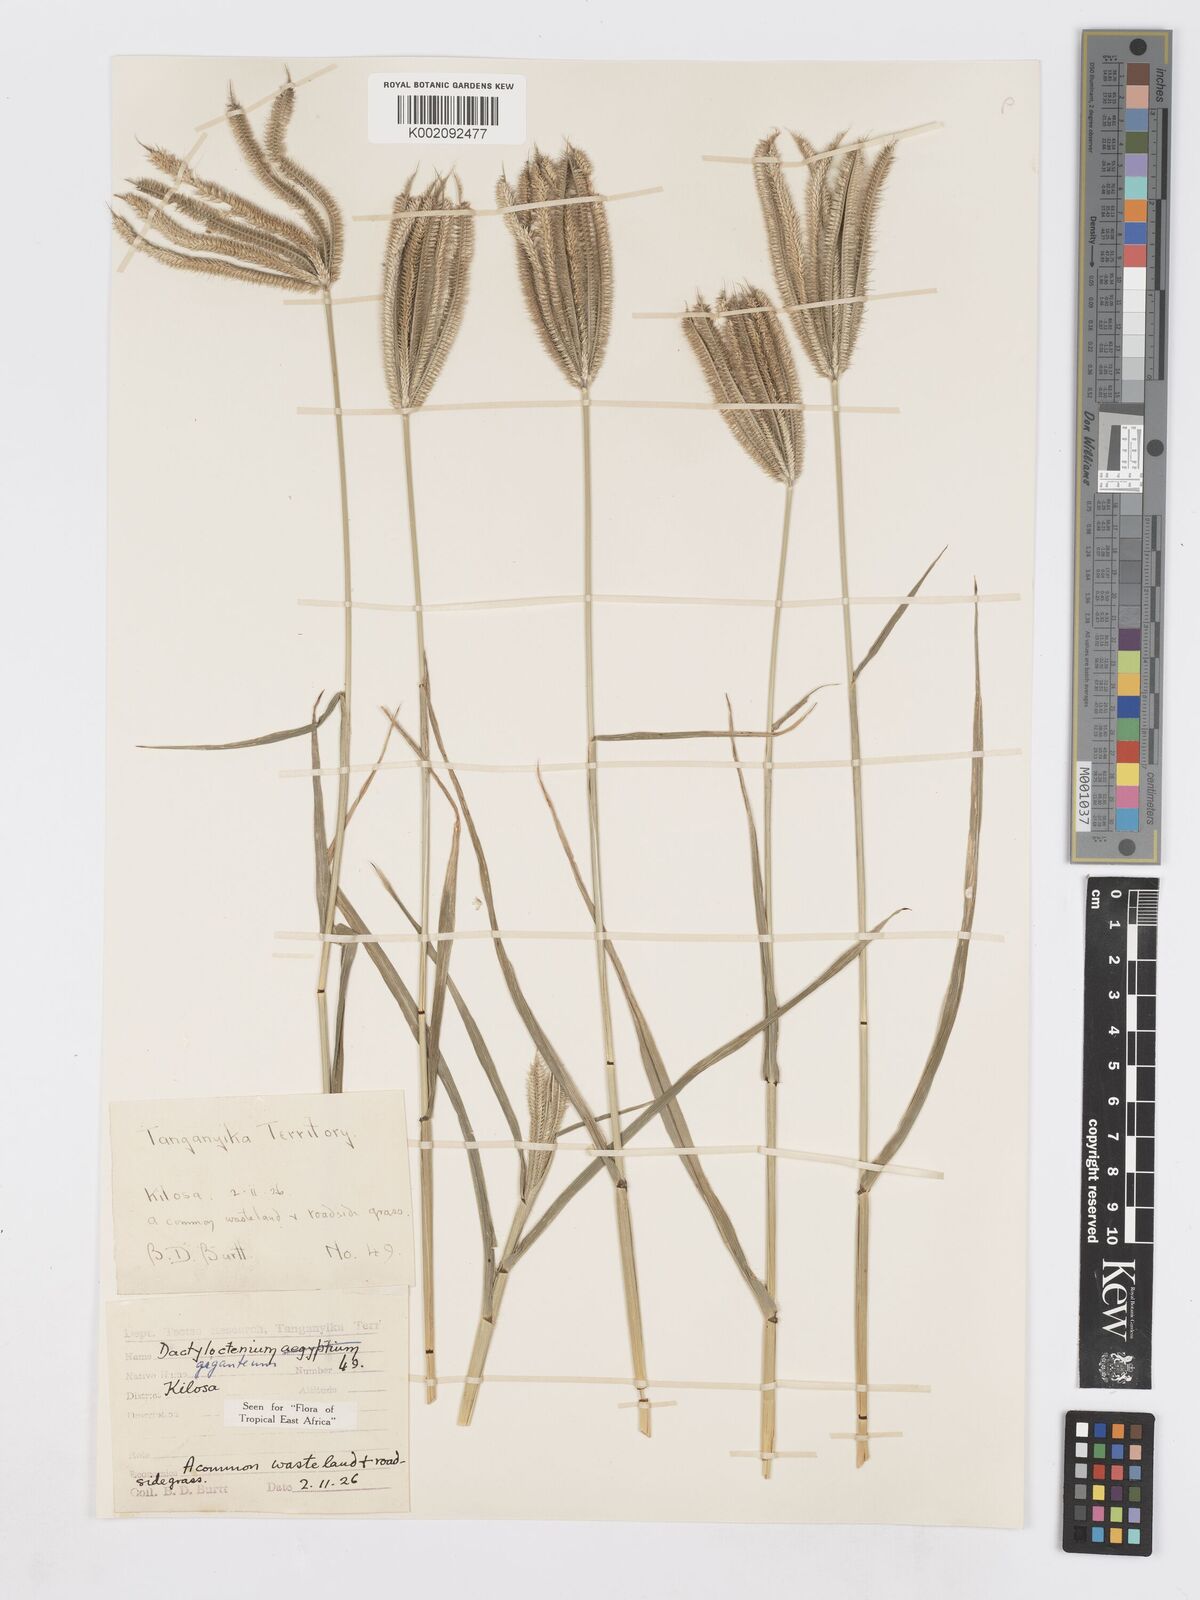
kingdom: Plantae
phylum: Tracheophyta
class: Liliopsida
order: Poales
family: Poaceae
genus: Dactyloctenium
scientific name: Dactyloctenium giganteum
